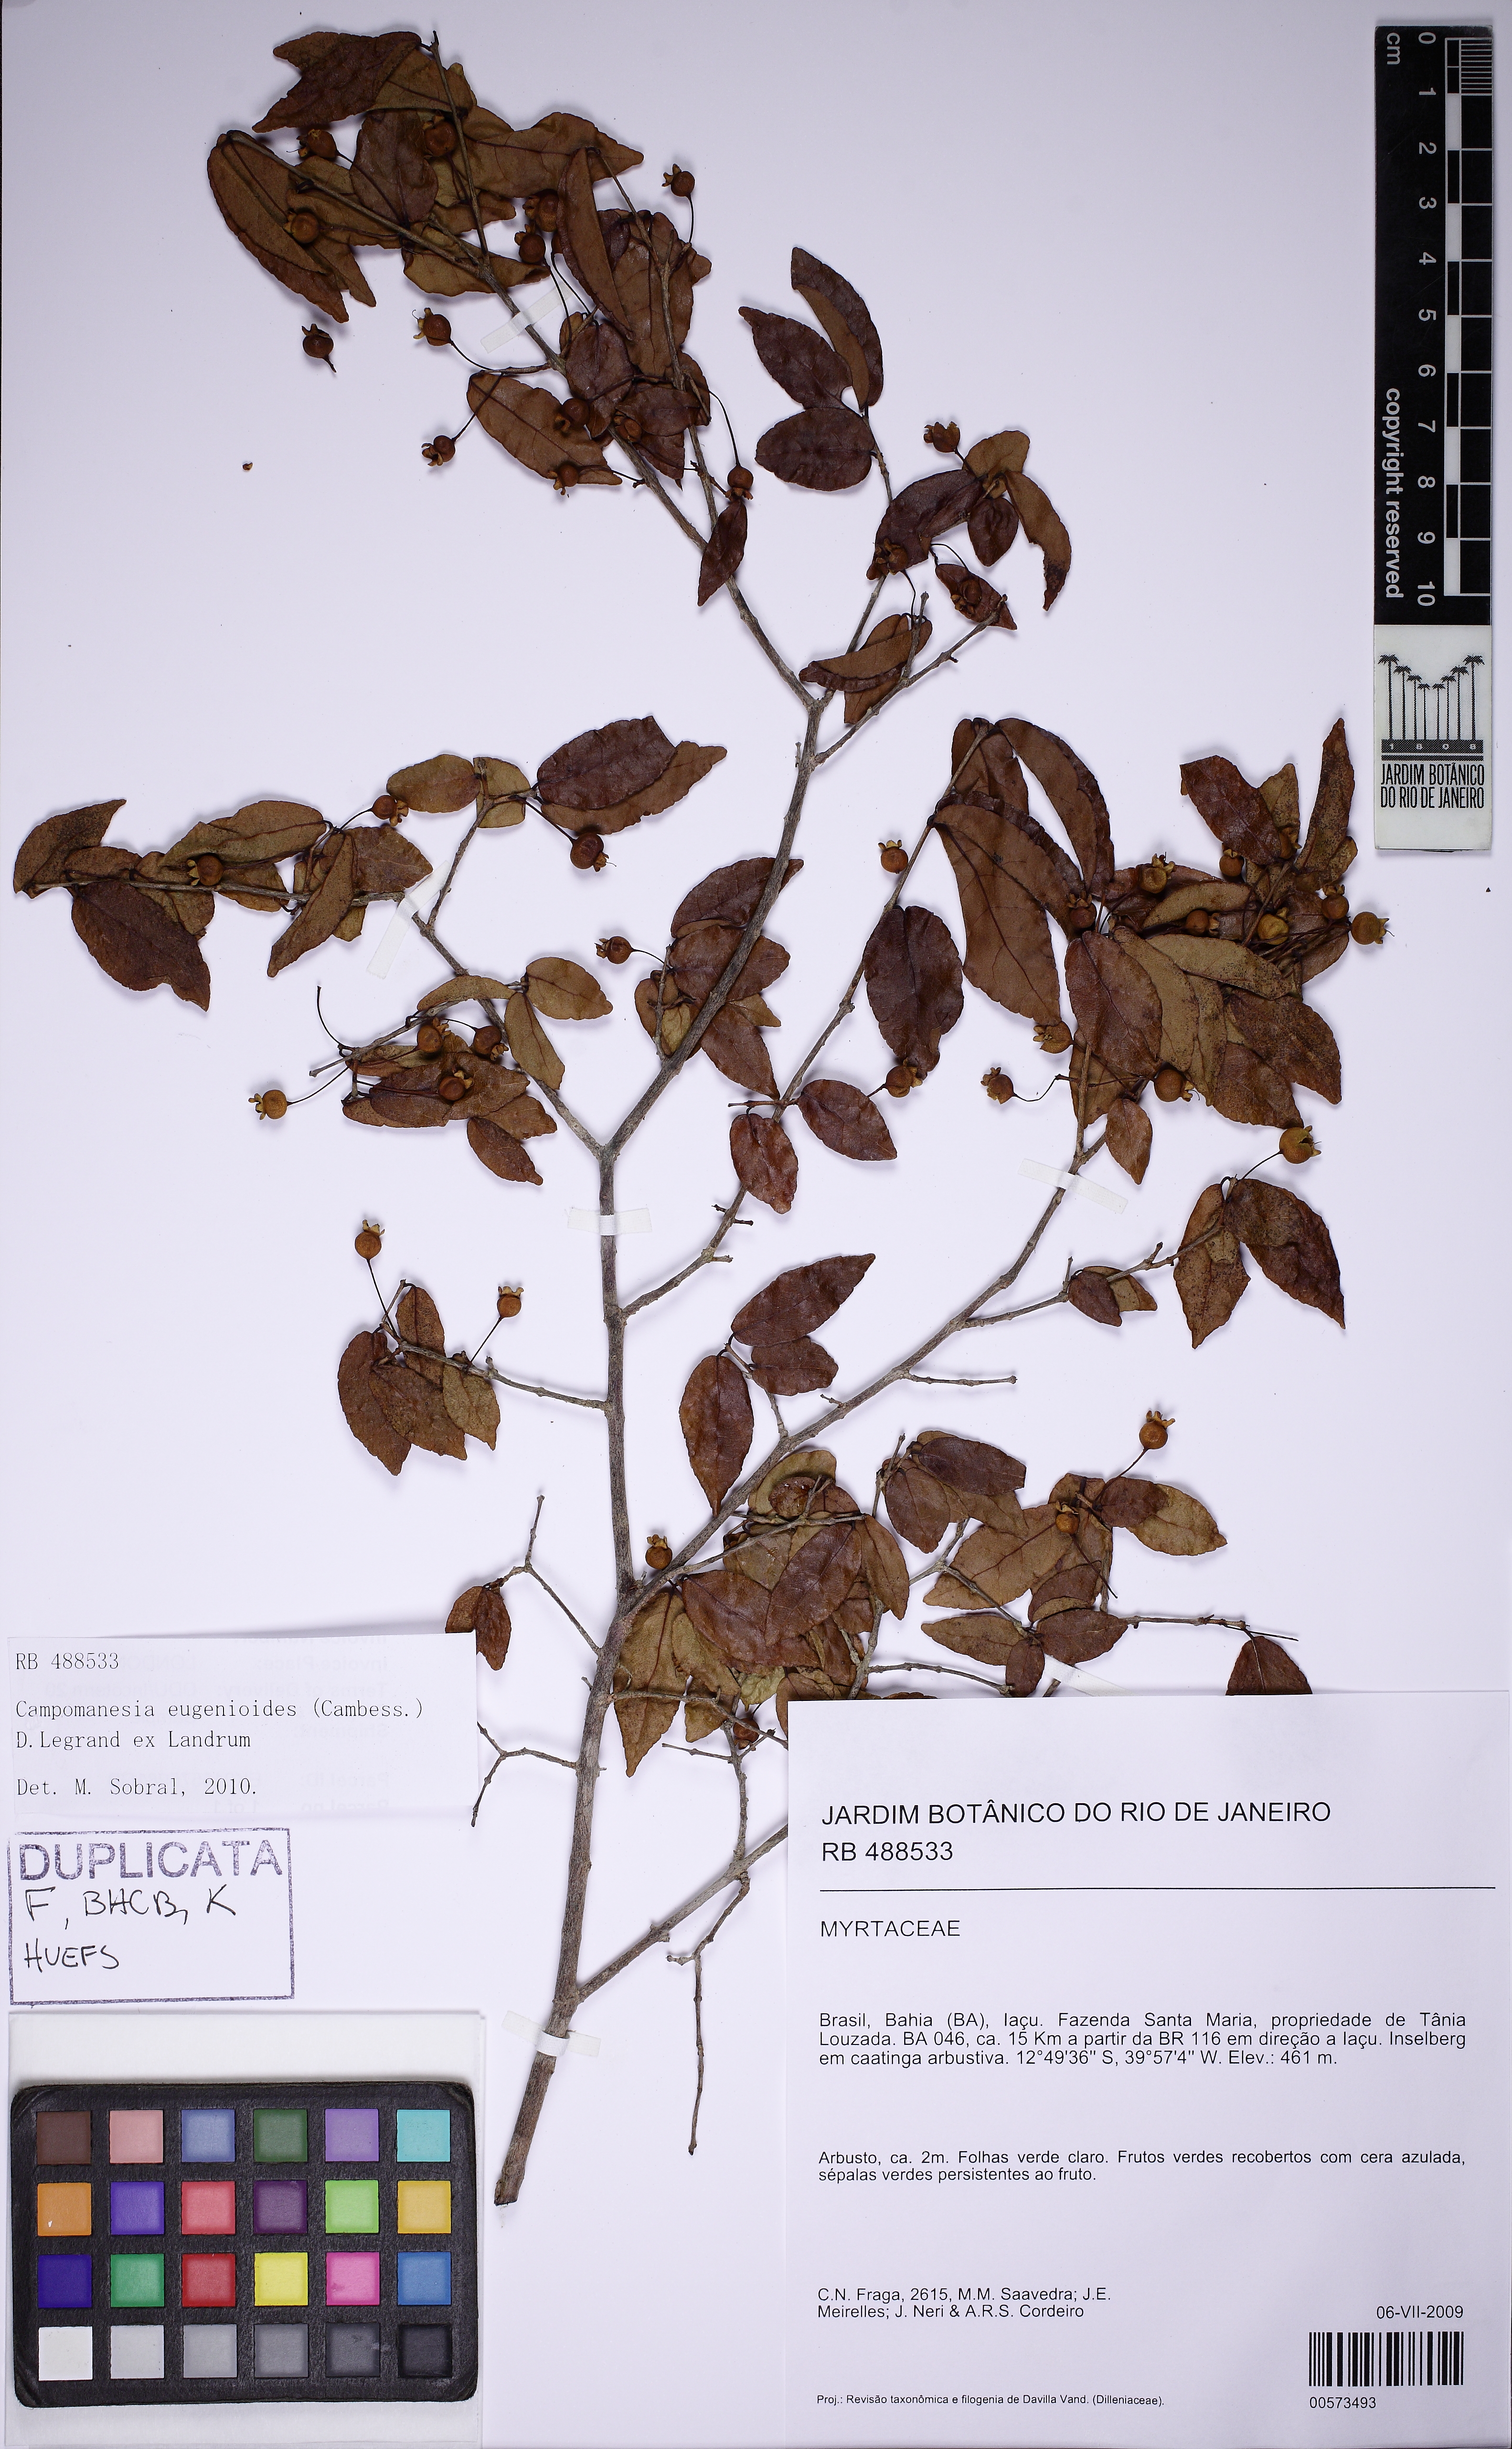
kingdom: Plantae
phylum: Tracheophyta
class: Magnoliopsida
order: Myrtales
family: Myrtaceae
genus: Campomanesia
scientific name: Campomanesia eugenioides
